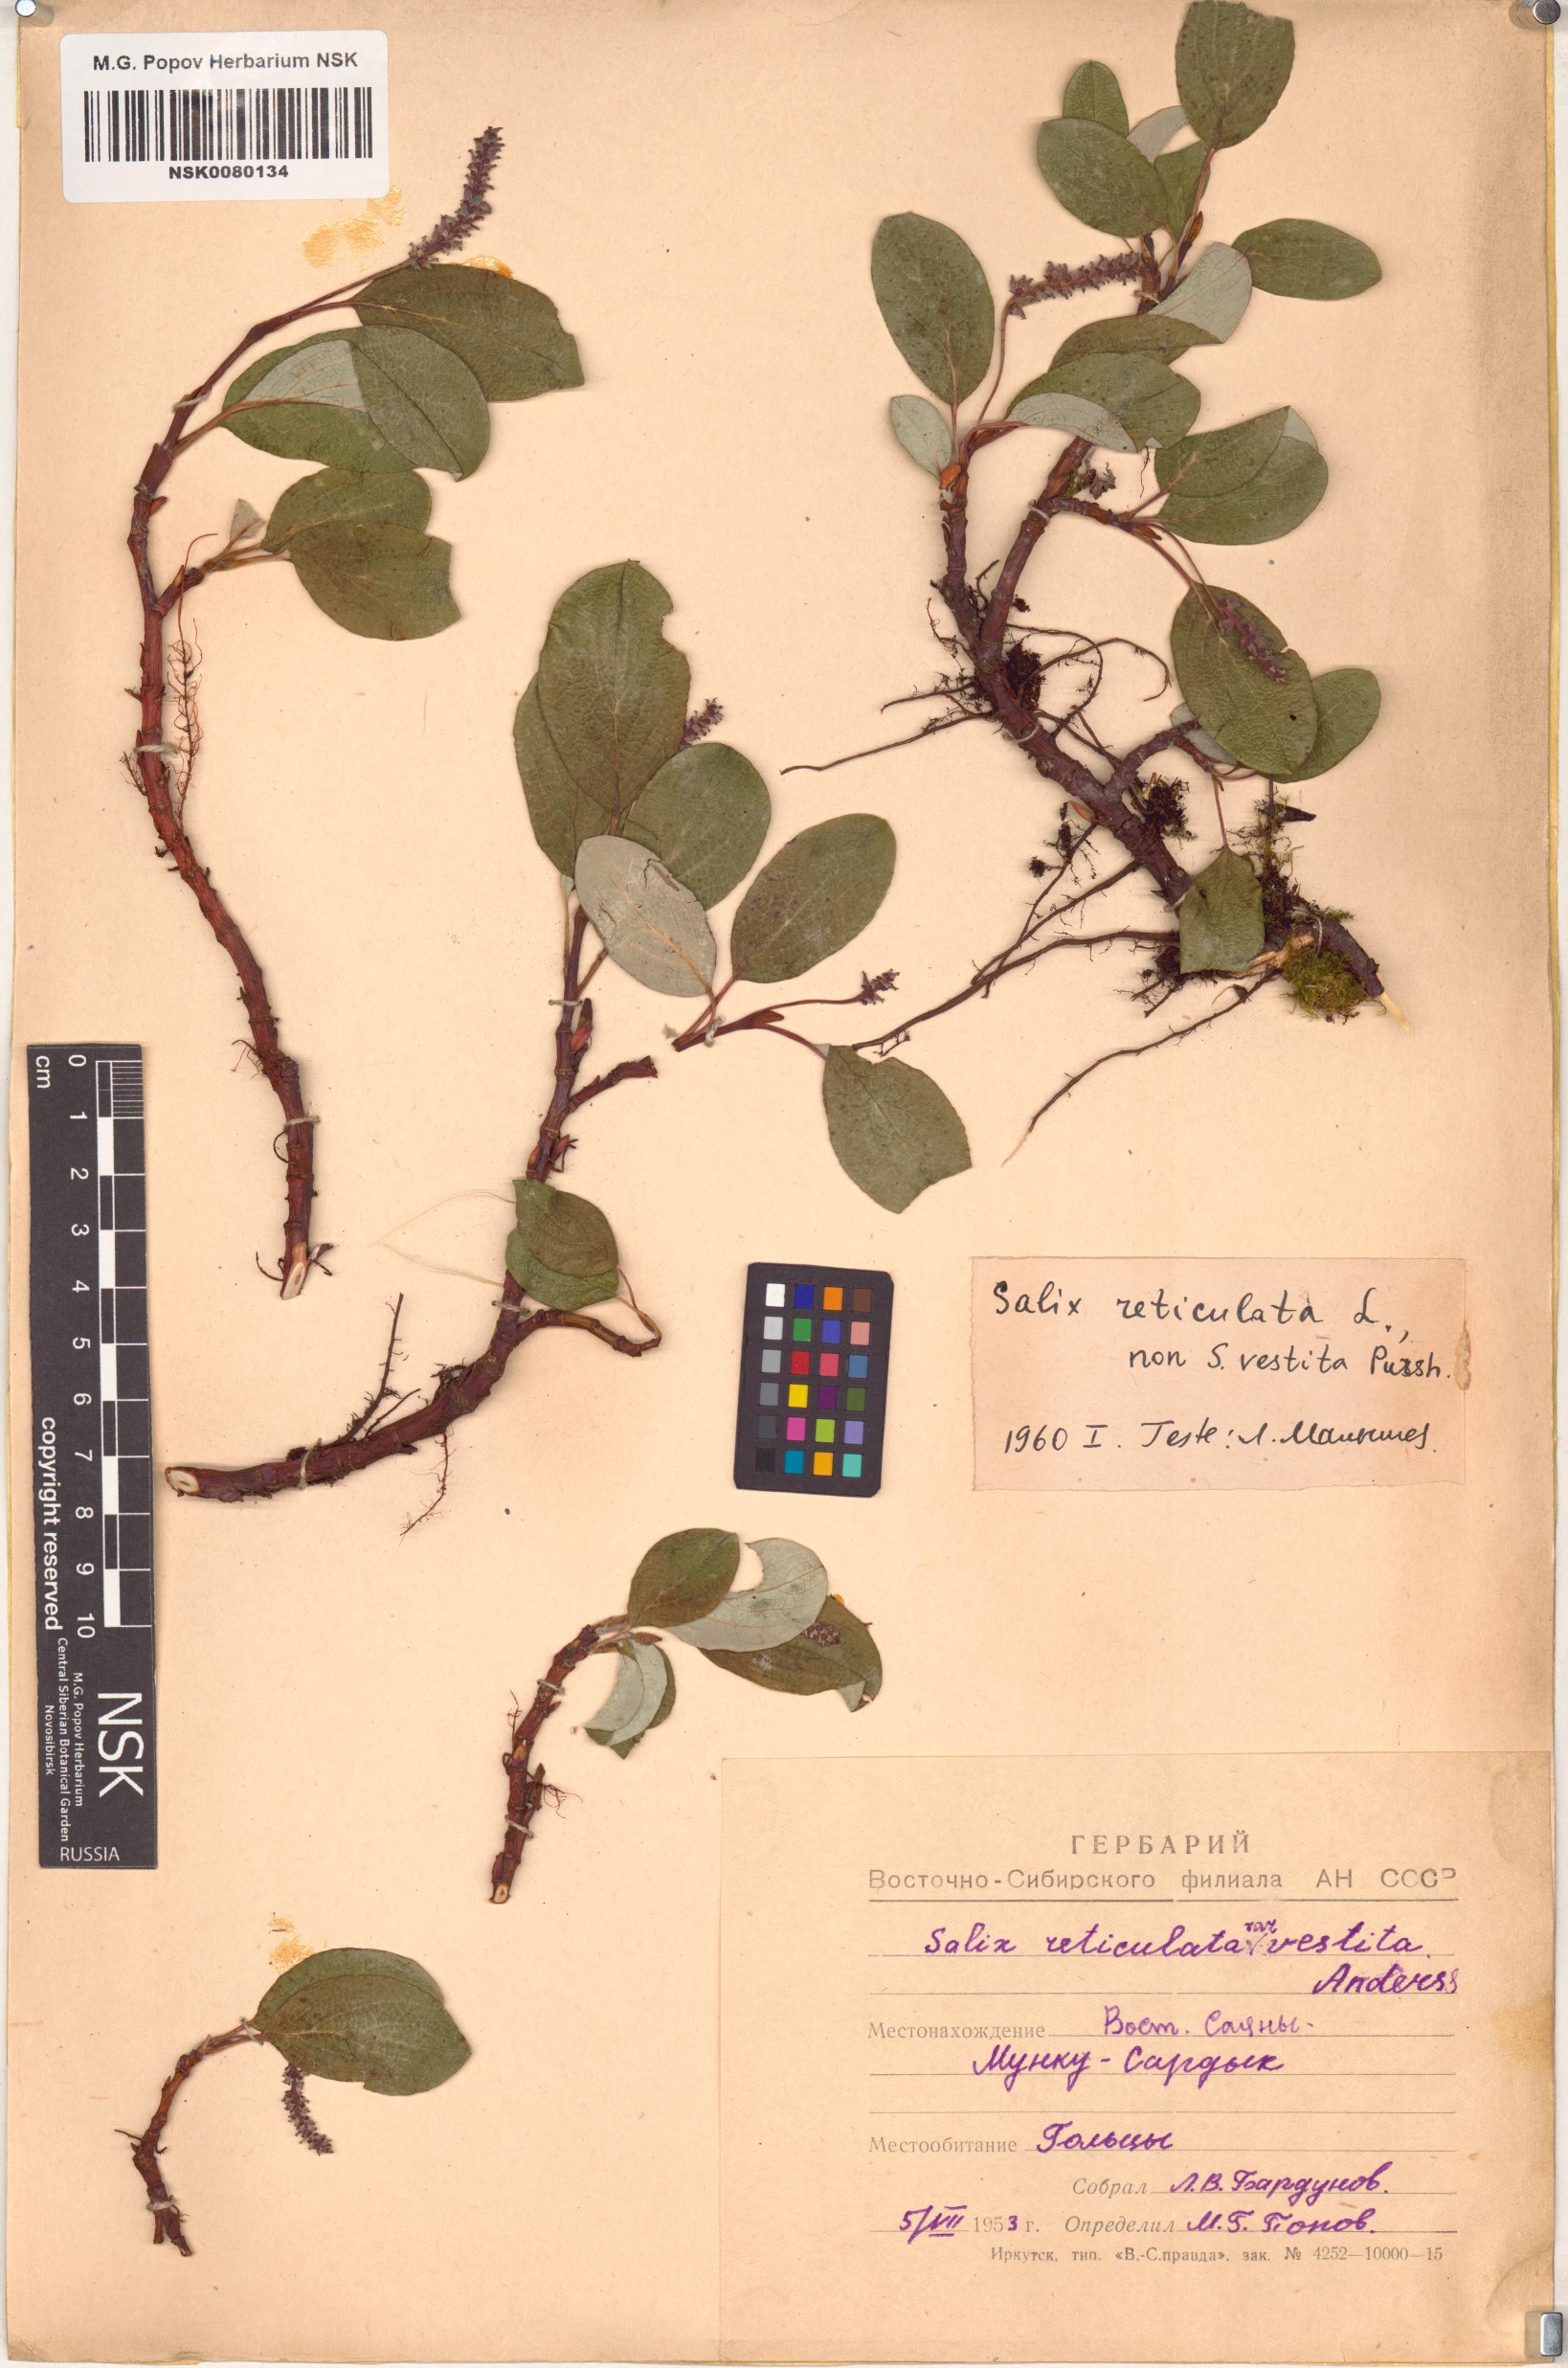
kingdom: Plantae
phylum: Tracheophyta
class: Magnoliopsida
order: Malpighiales
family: Salicaceae
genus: Salix
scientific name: Salix reticulata
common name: Net-leaved willow
